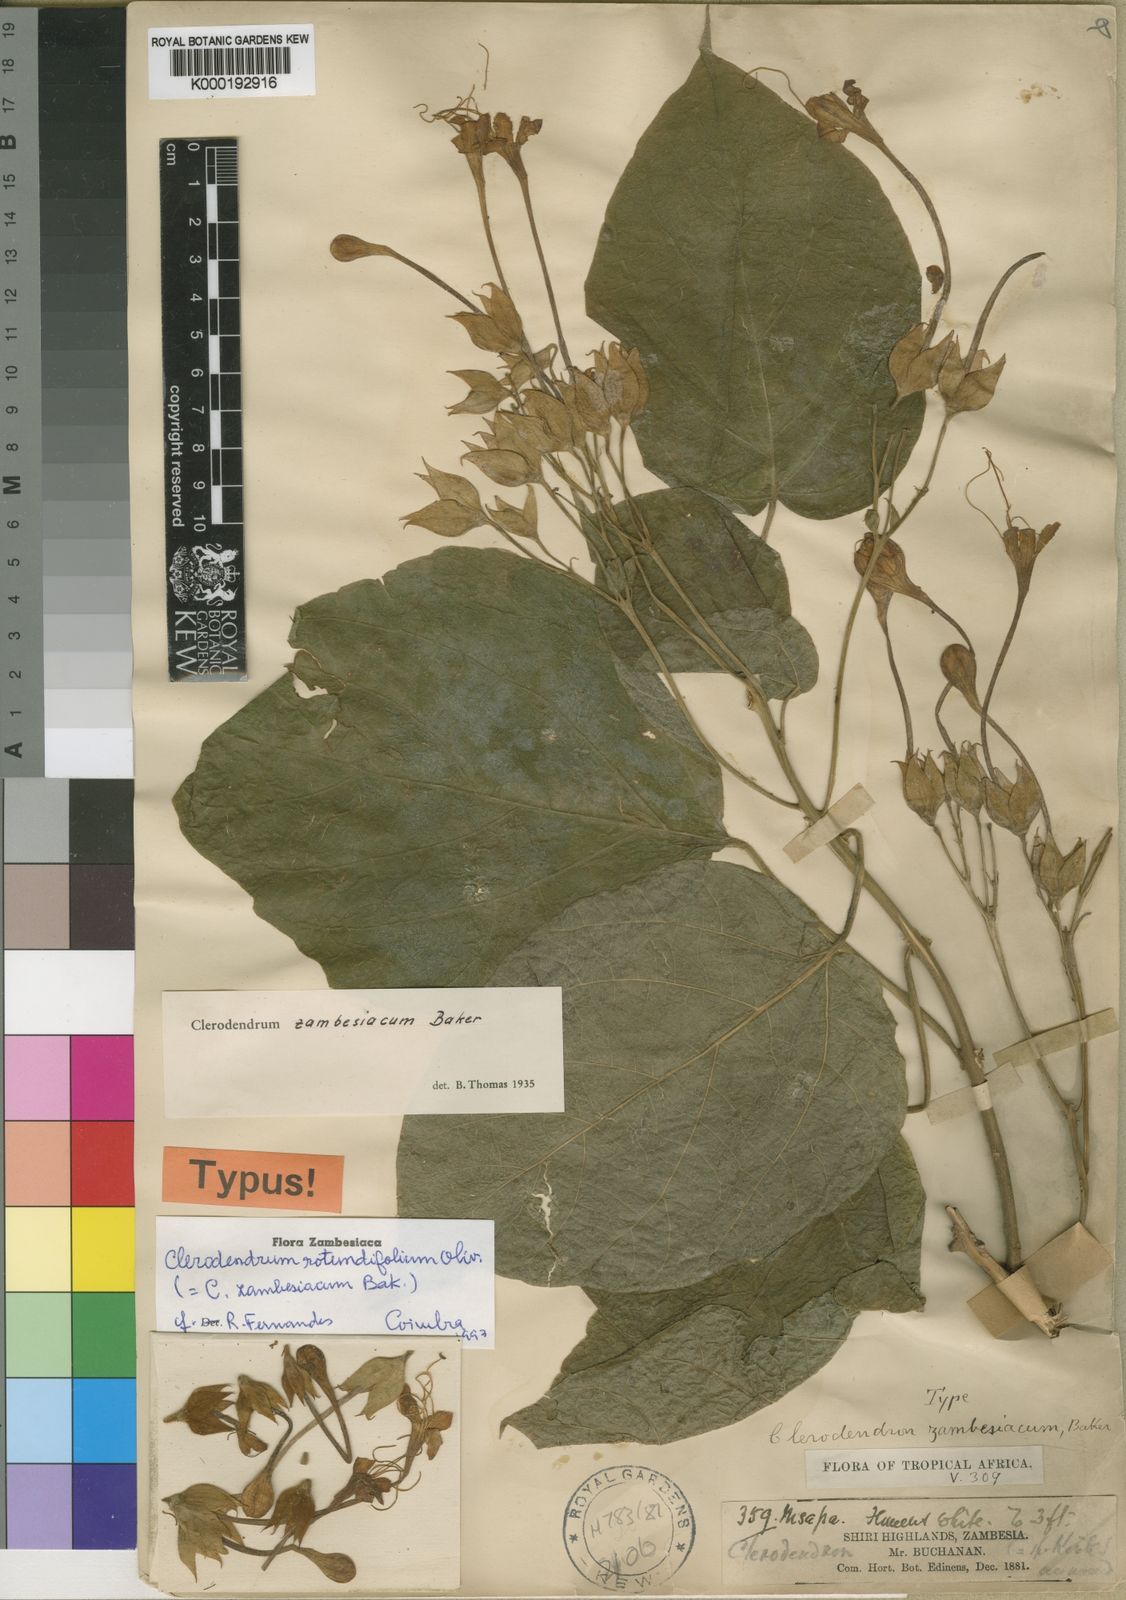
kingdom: Plantae
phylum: Tracheophyta
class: Magnoliopsida
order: Lamiales
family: Lamiaceae
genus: Clerodendrum
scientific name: Clerodendrum rotundifolium
